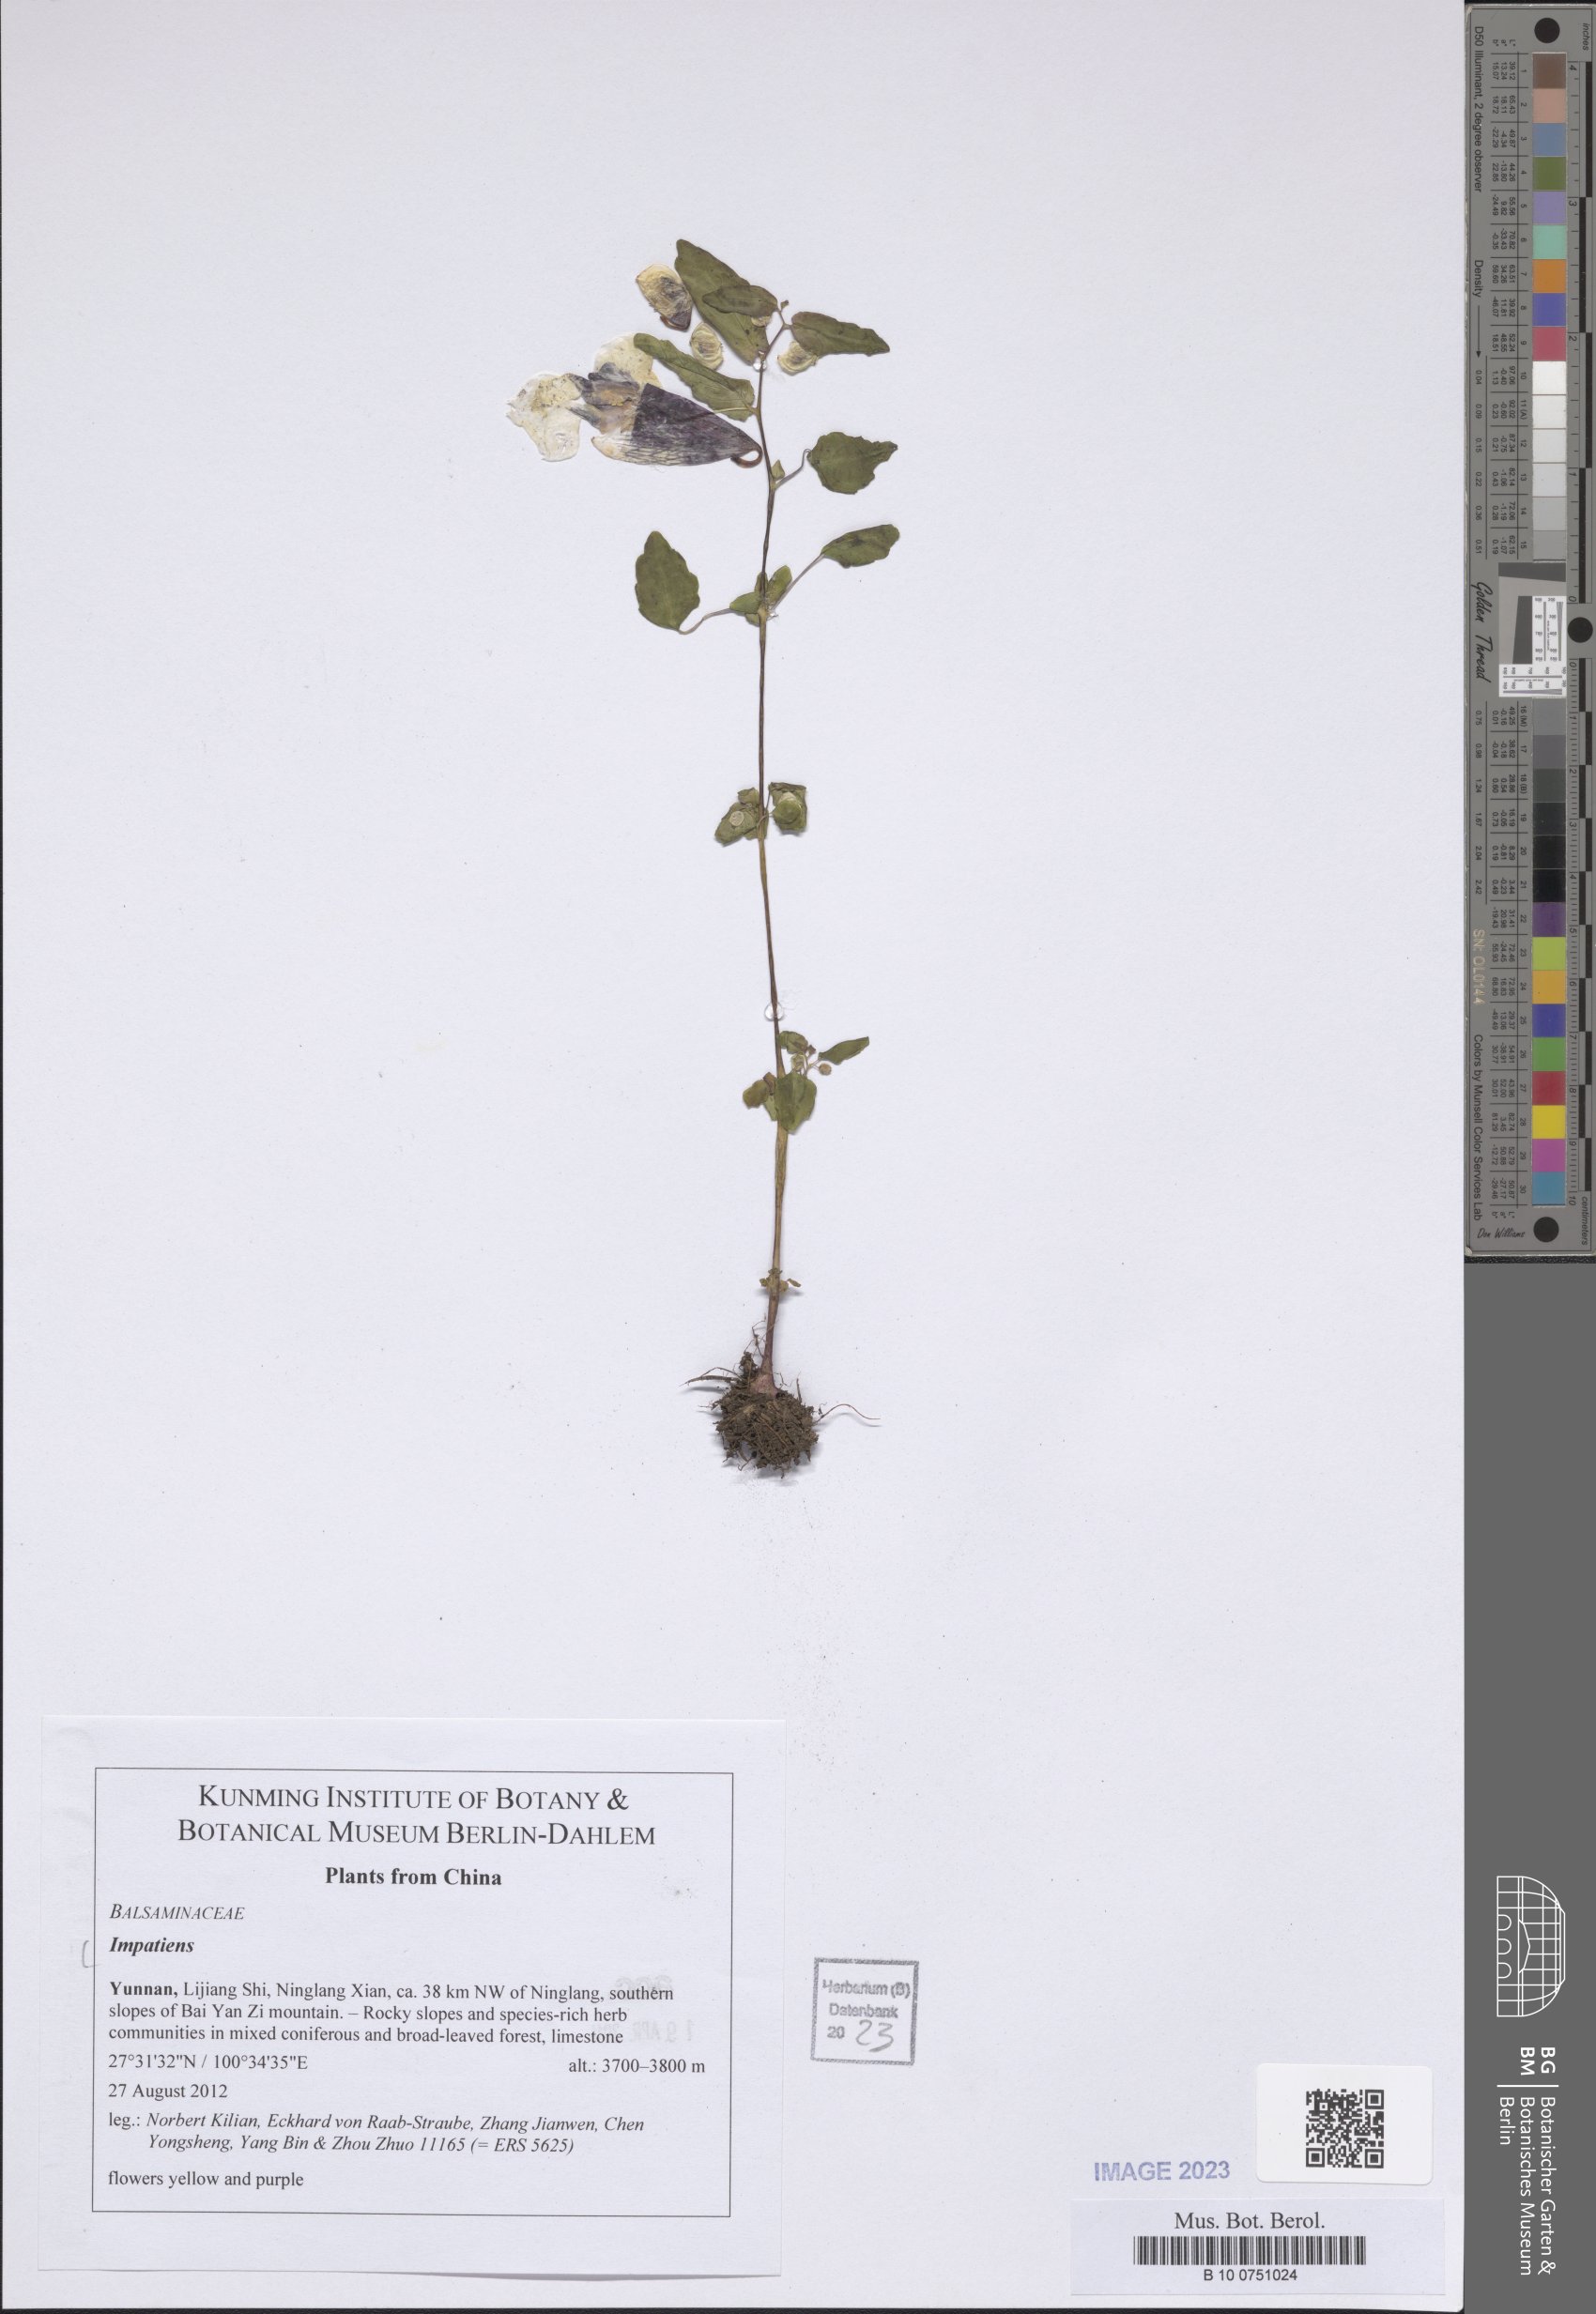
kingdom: Plantae
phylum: Tracheophyta
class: Magnoliopsida
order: Ericales
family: Balsaminaceae
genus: Impatiens
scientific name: Impatiens
